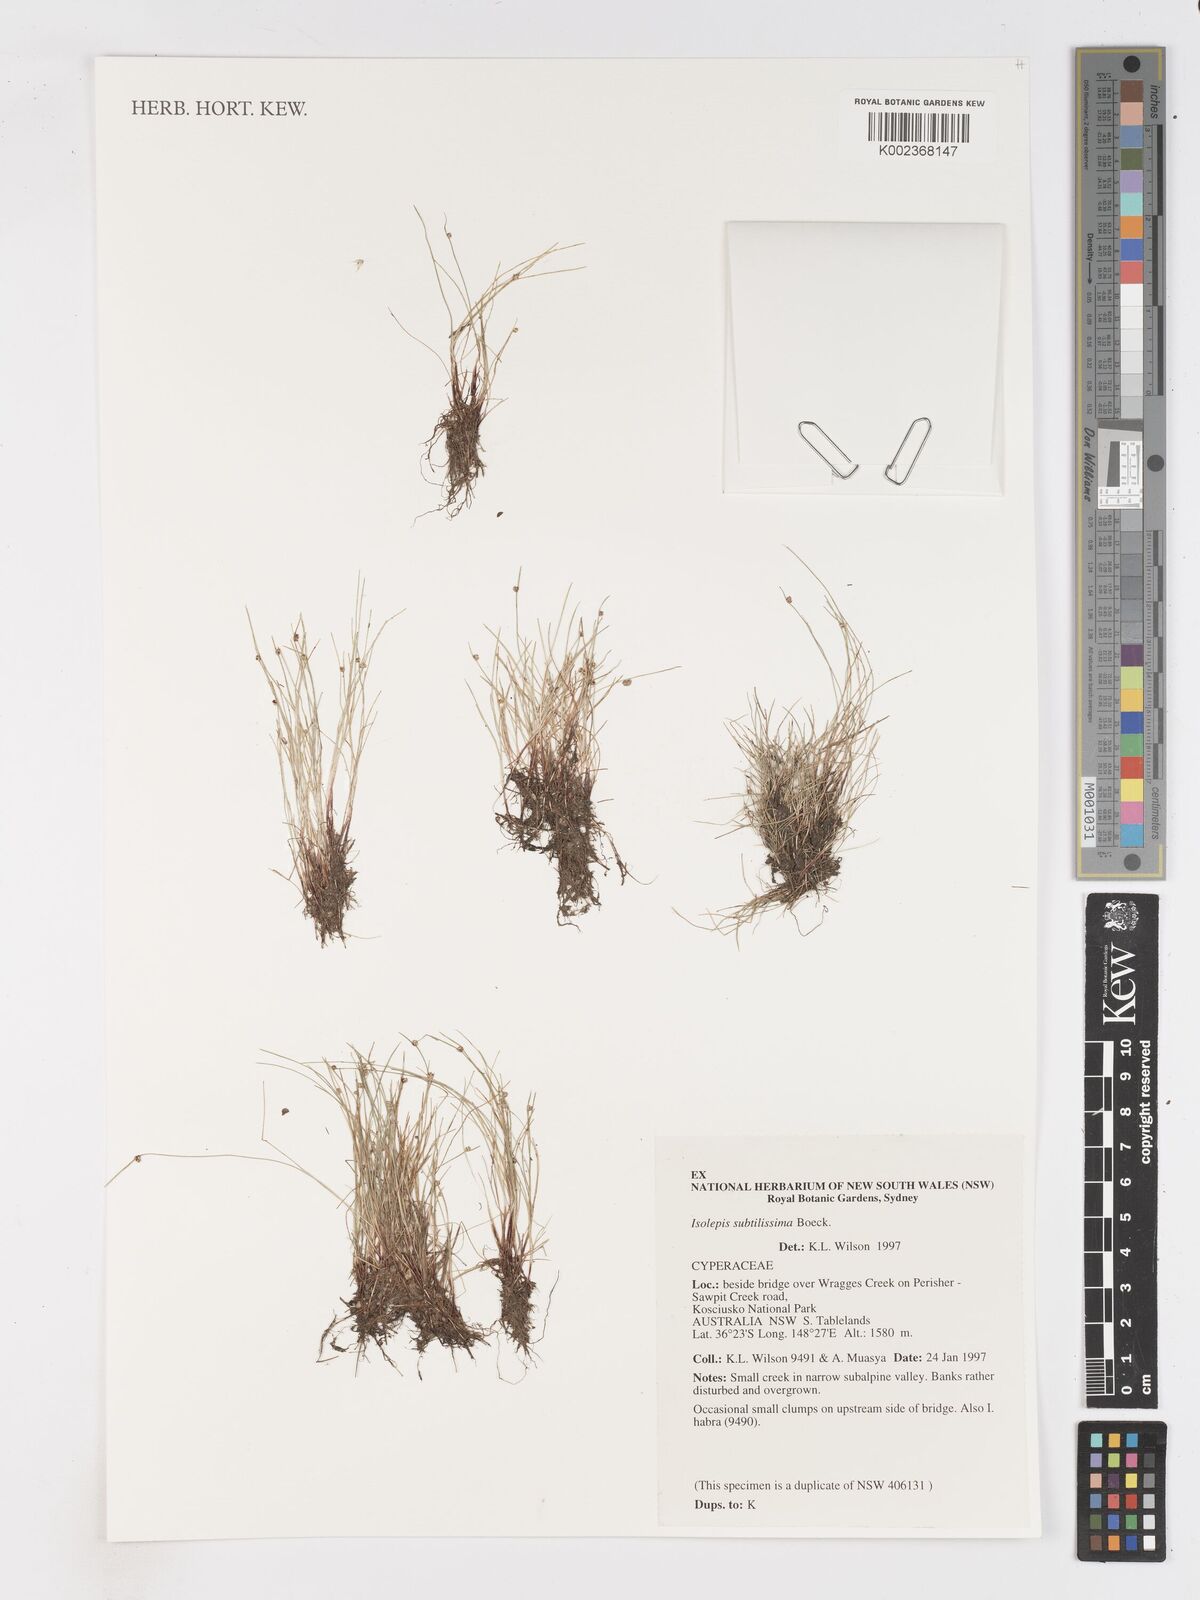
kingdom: Plantae
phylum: Tracheophyta
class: Liliopsida
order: Poales
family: Cyperaceae
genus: Isolepis
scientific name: Isolepis subtilissima
